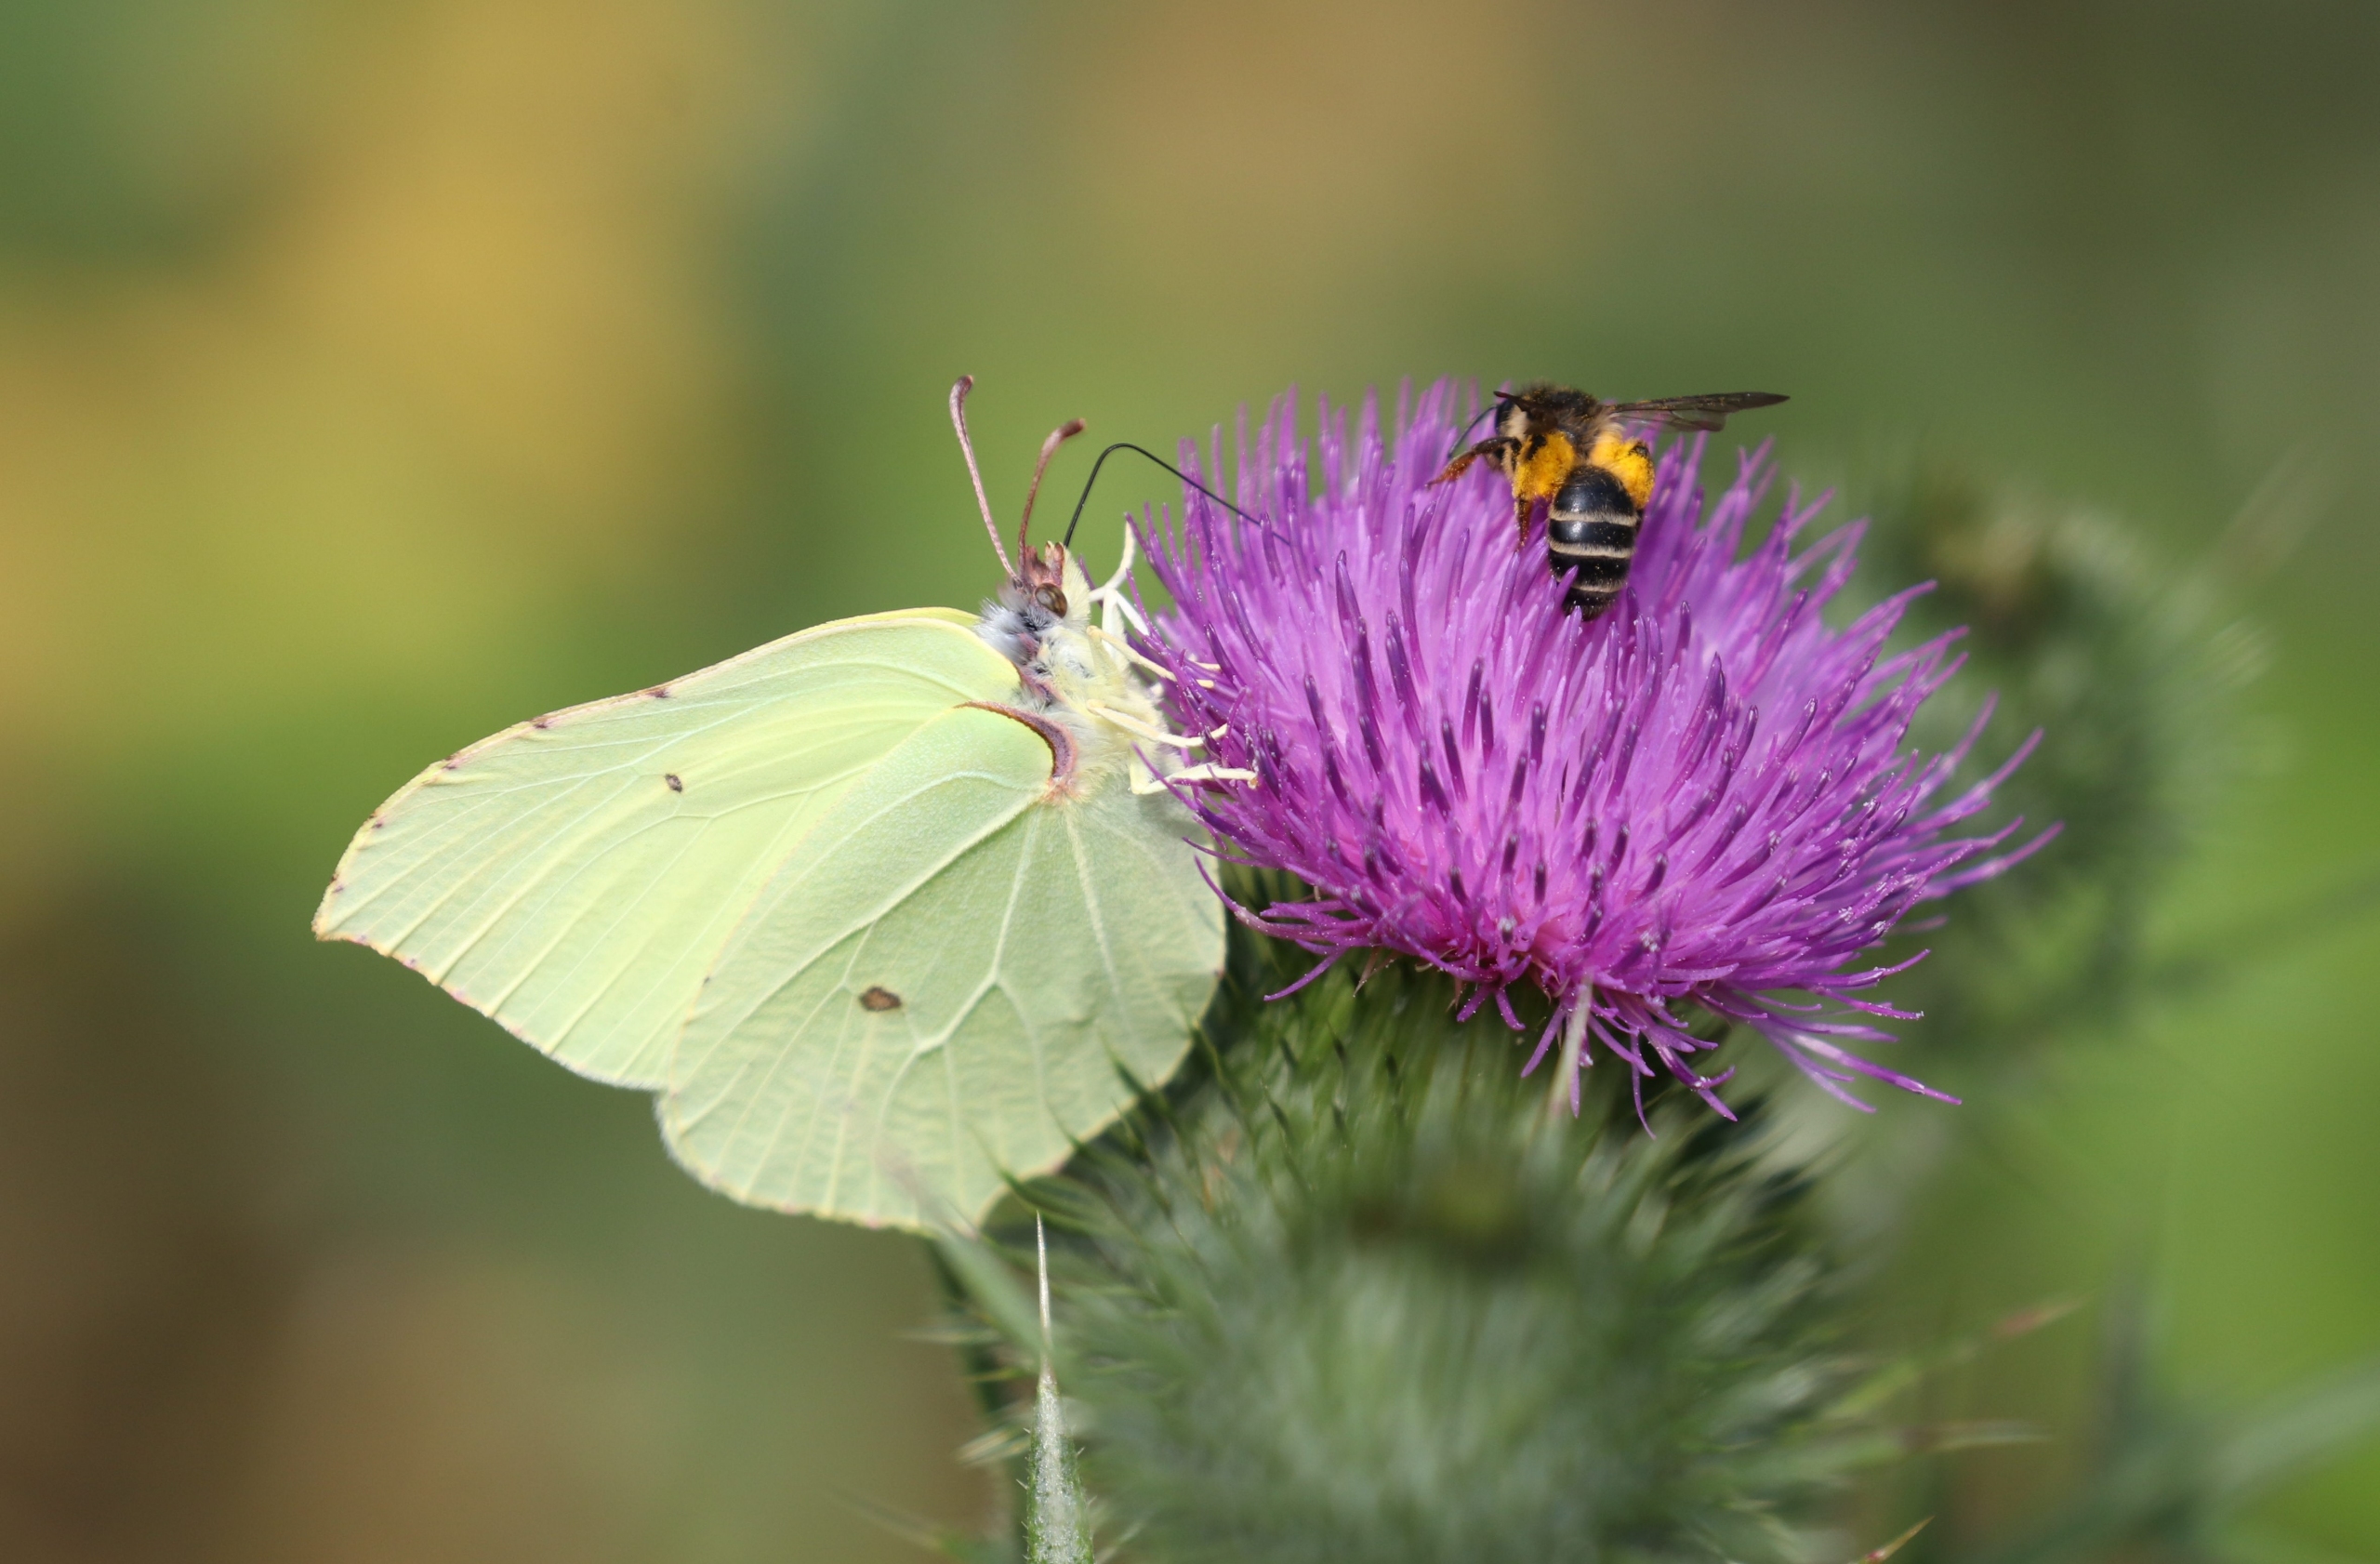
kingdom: Animalia
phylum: Arthropoda
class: Insecta
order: Lepidoptera
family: Pieridae
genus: Gonepteryx
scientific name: Gonepteryx rhamni
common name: Citronsommerfugl
